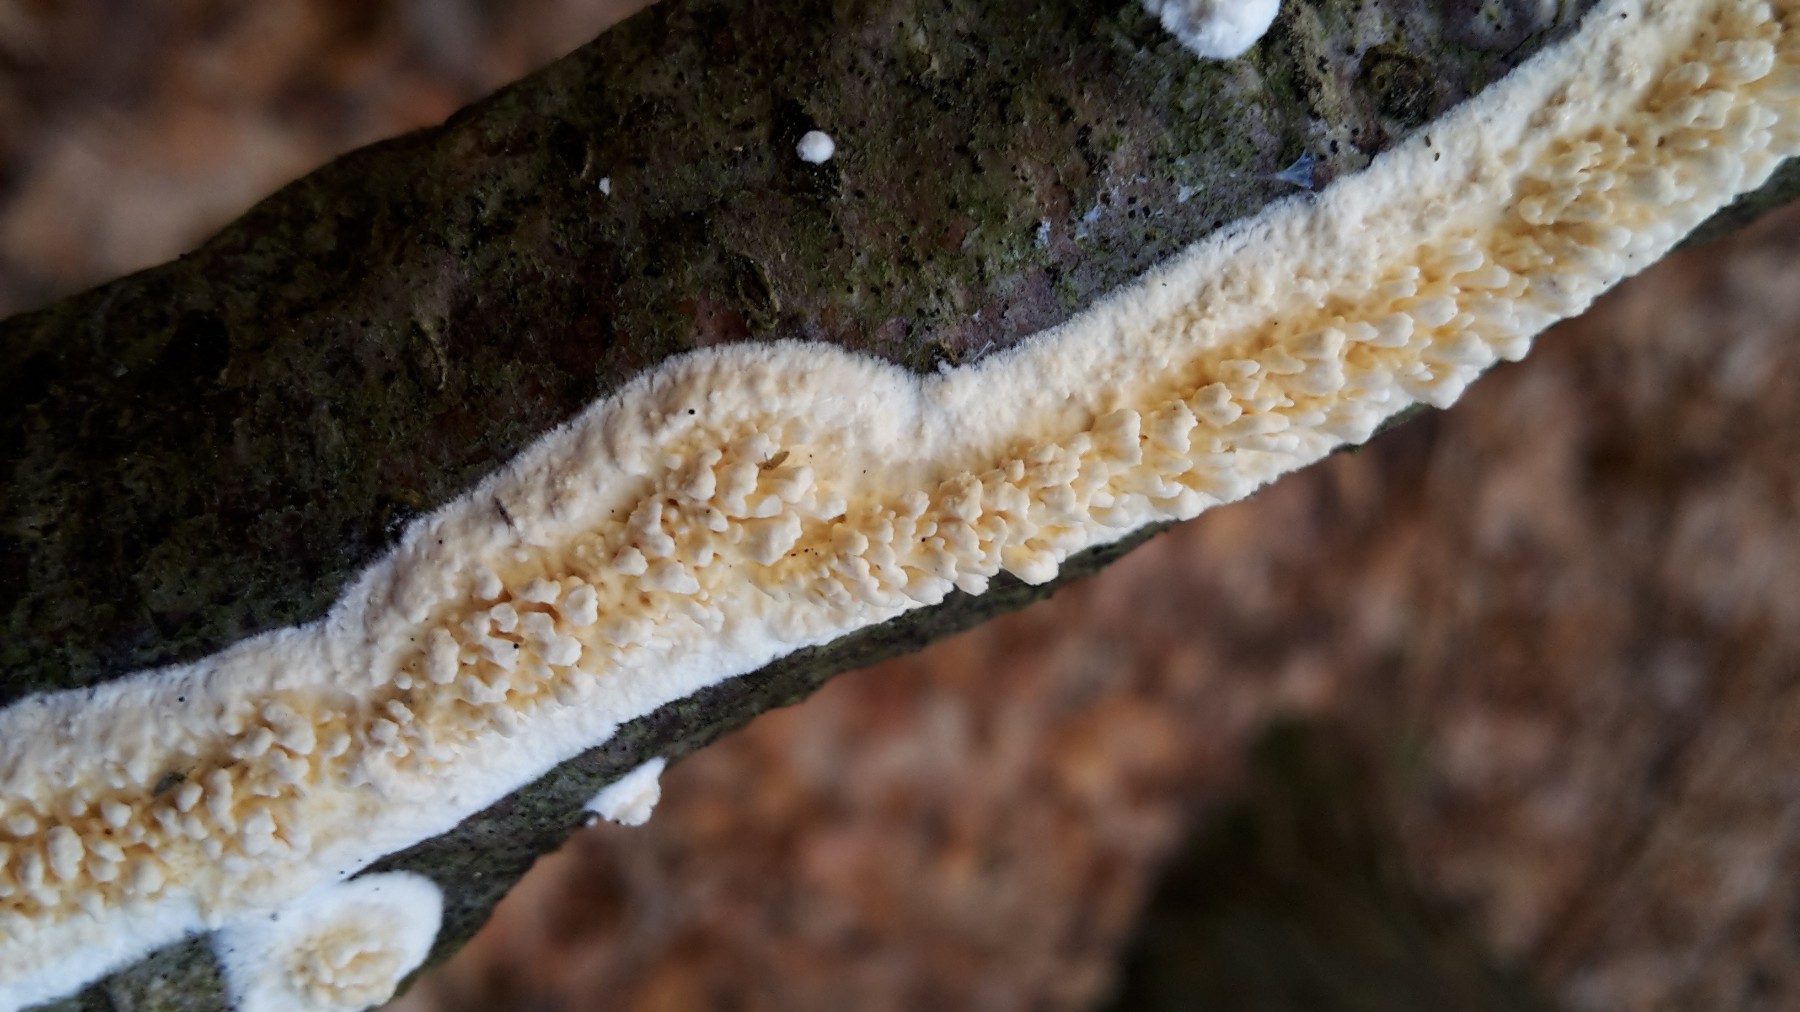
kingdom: Fungi
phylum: Basidiomycota
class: Agaricomycetes
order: Corticiales
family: Corticiaceae
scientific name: Corticiaceae
